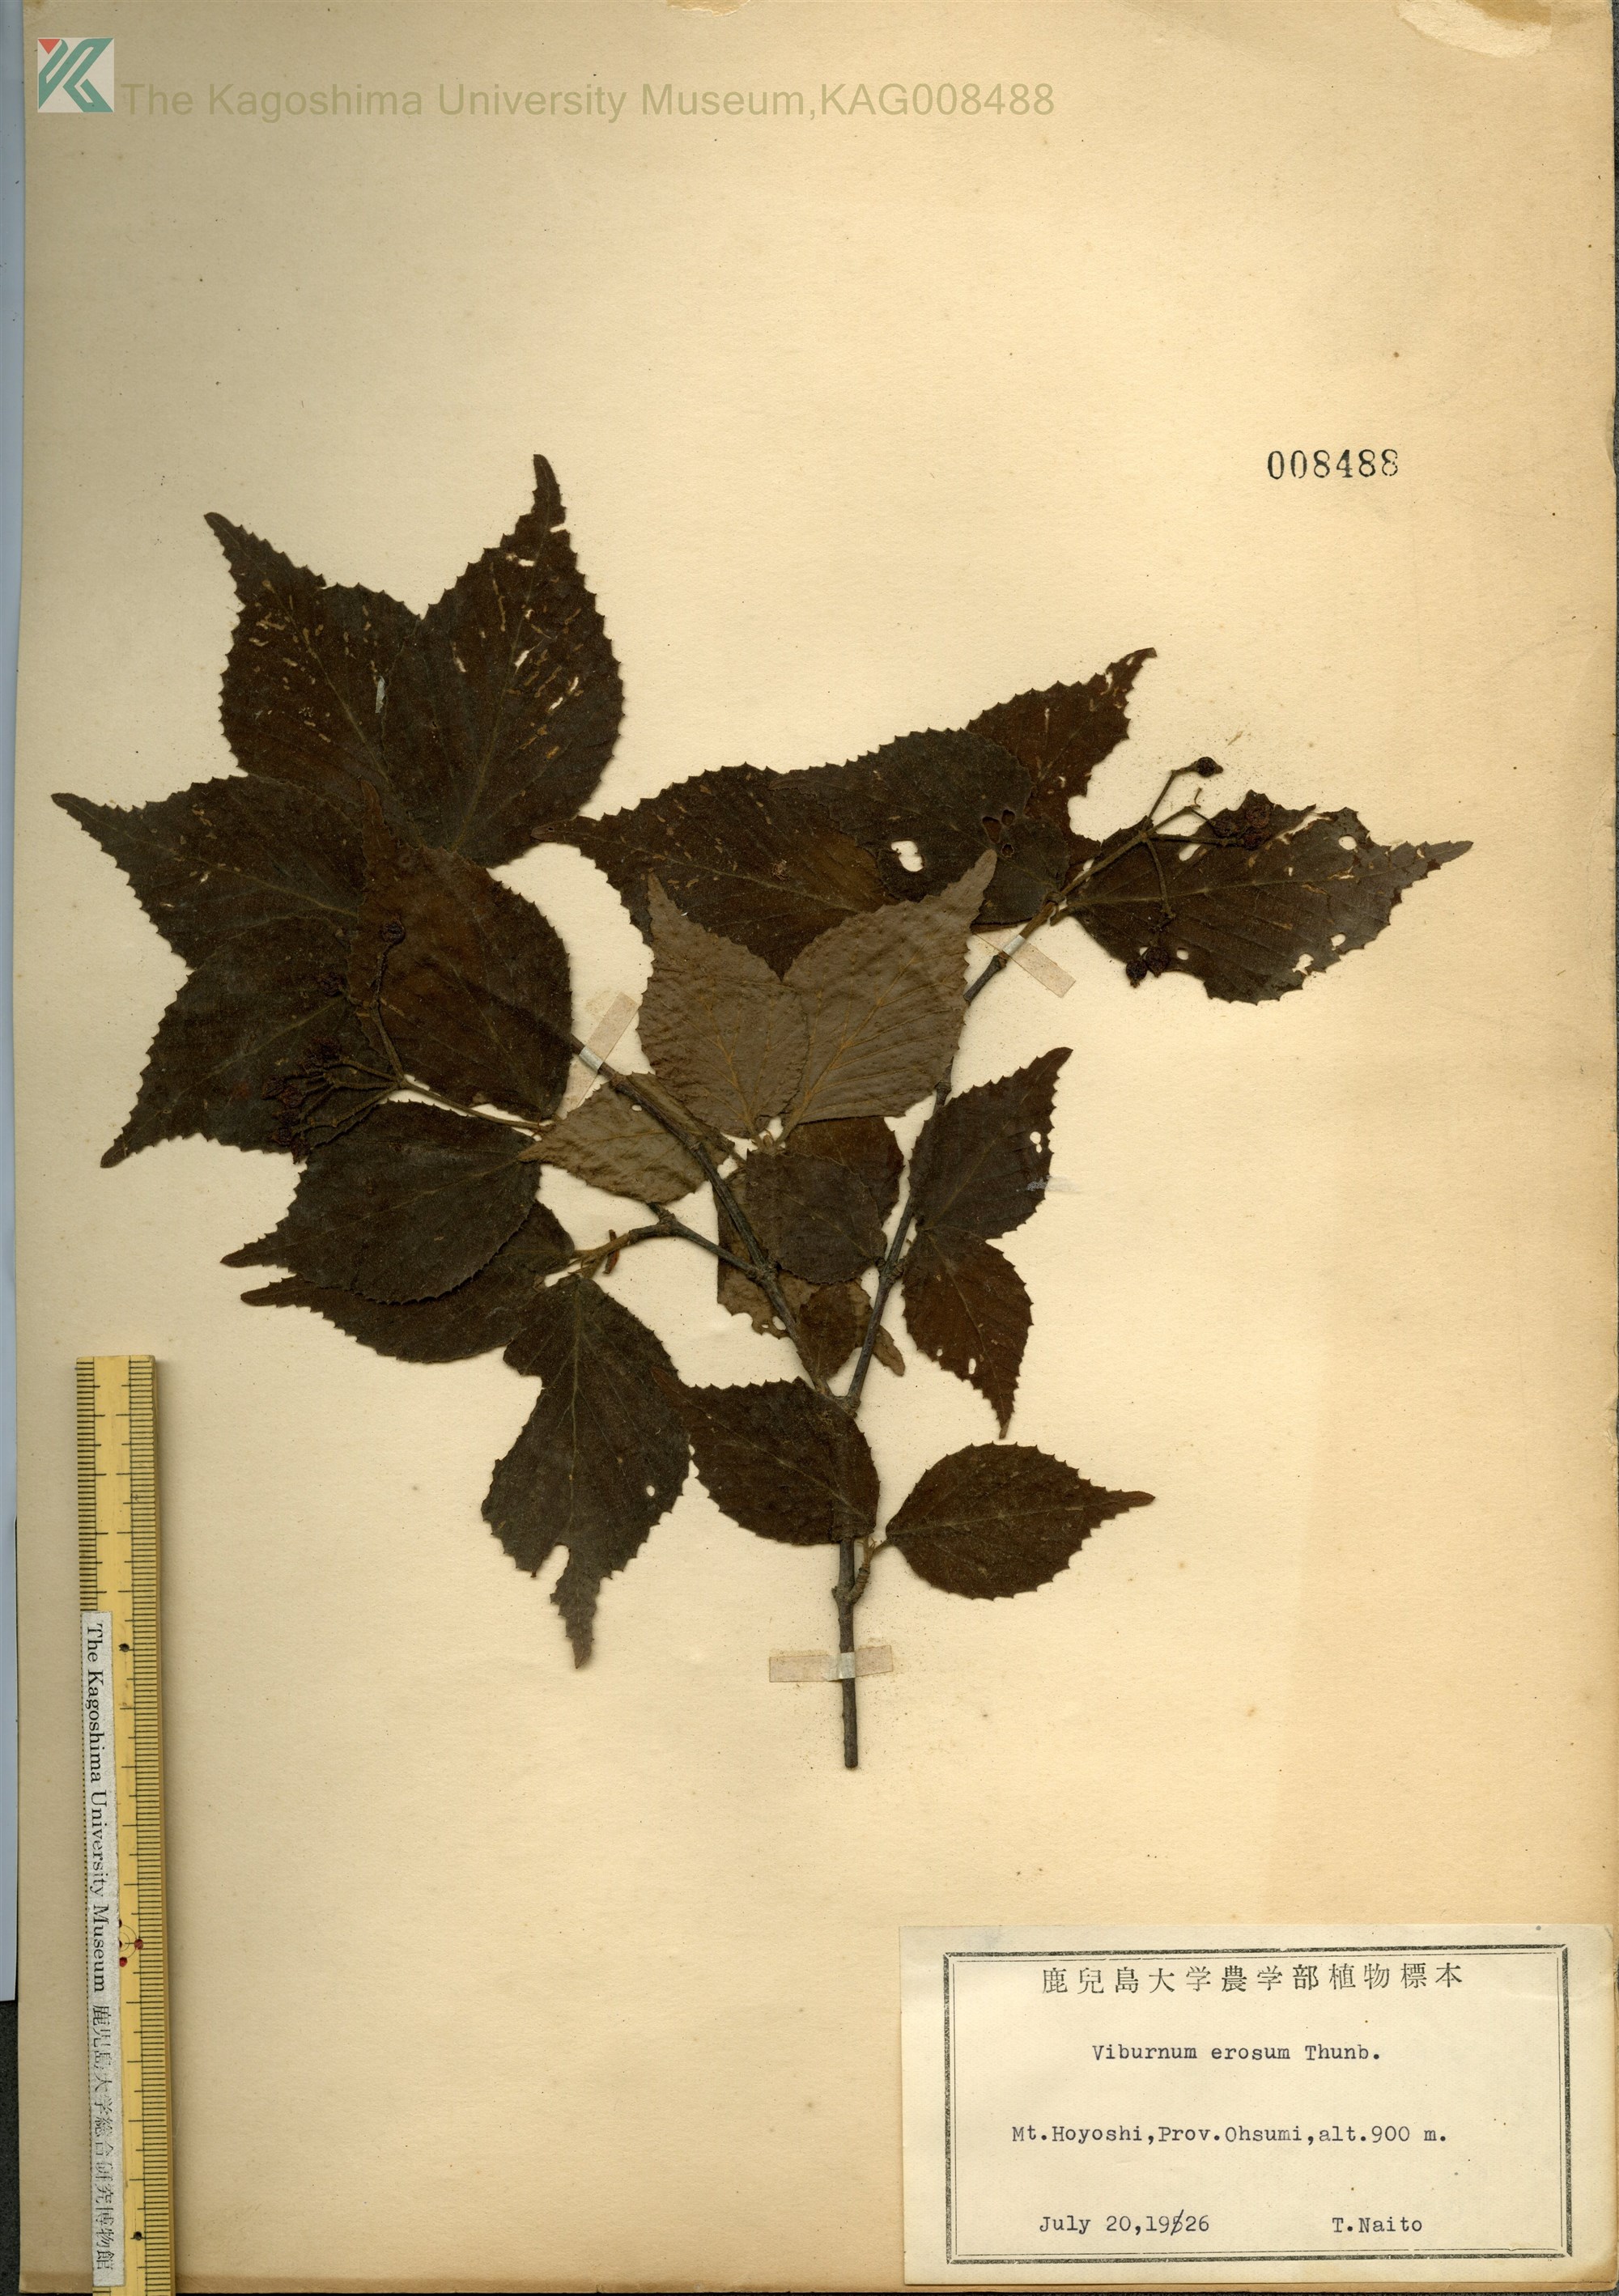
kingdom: Plantae
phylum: Tracheophyta
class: Magnoliopsida
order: Dipsacales
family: Viburnaceae
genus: Viburnum
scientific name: Viburnum erosum
